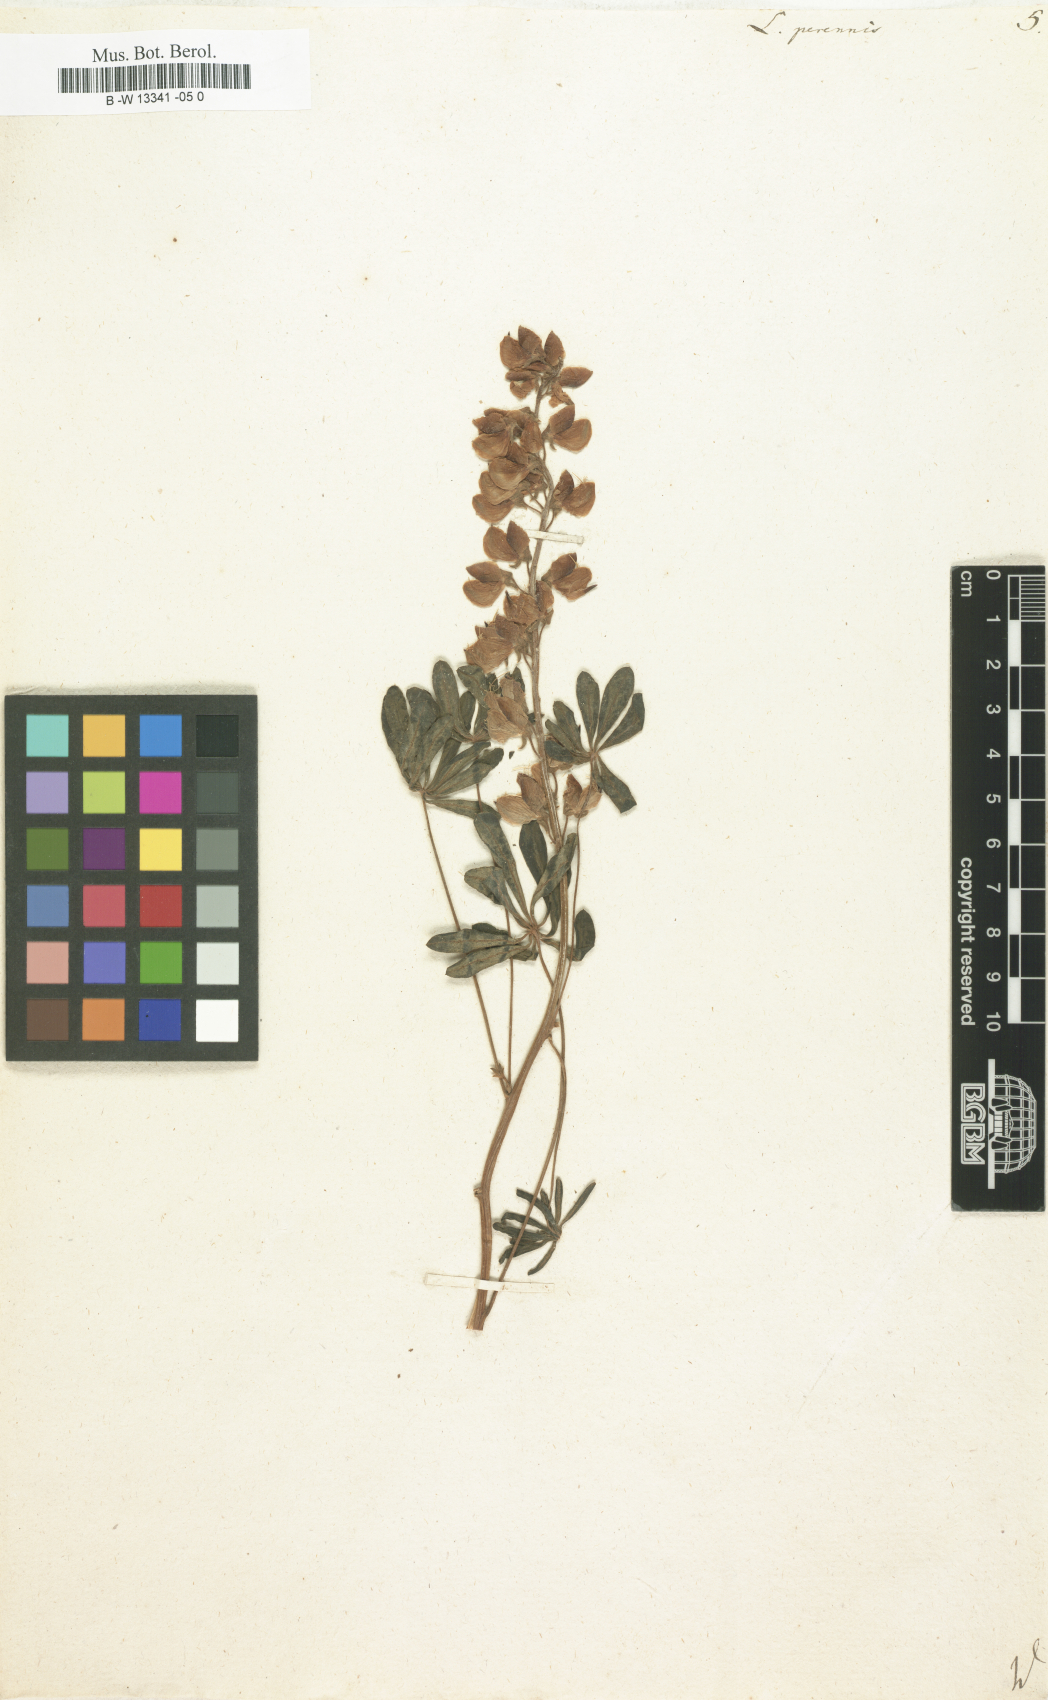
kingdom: Plantae
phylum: Tracheophyta
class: Magnoliopsida
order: Fabales
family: Fabaceae
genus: Lupinus
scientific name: Lupinus perennis
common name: Sundial lupine
